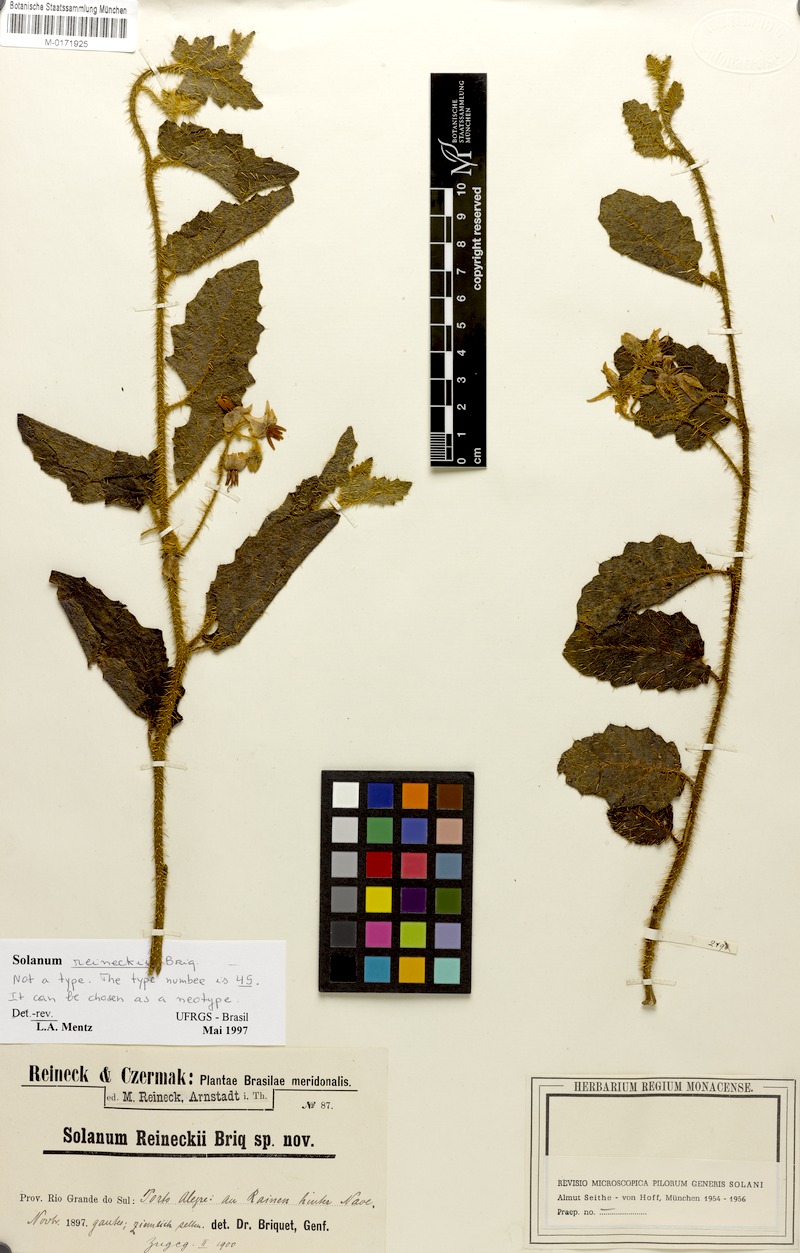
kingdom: Plantae
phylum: Tracheophyta
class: Magnoliopsida
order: Solanales
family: Solanaceae
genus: Solanum
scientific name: Solanum reineckii
